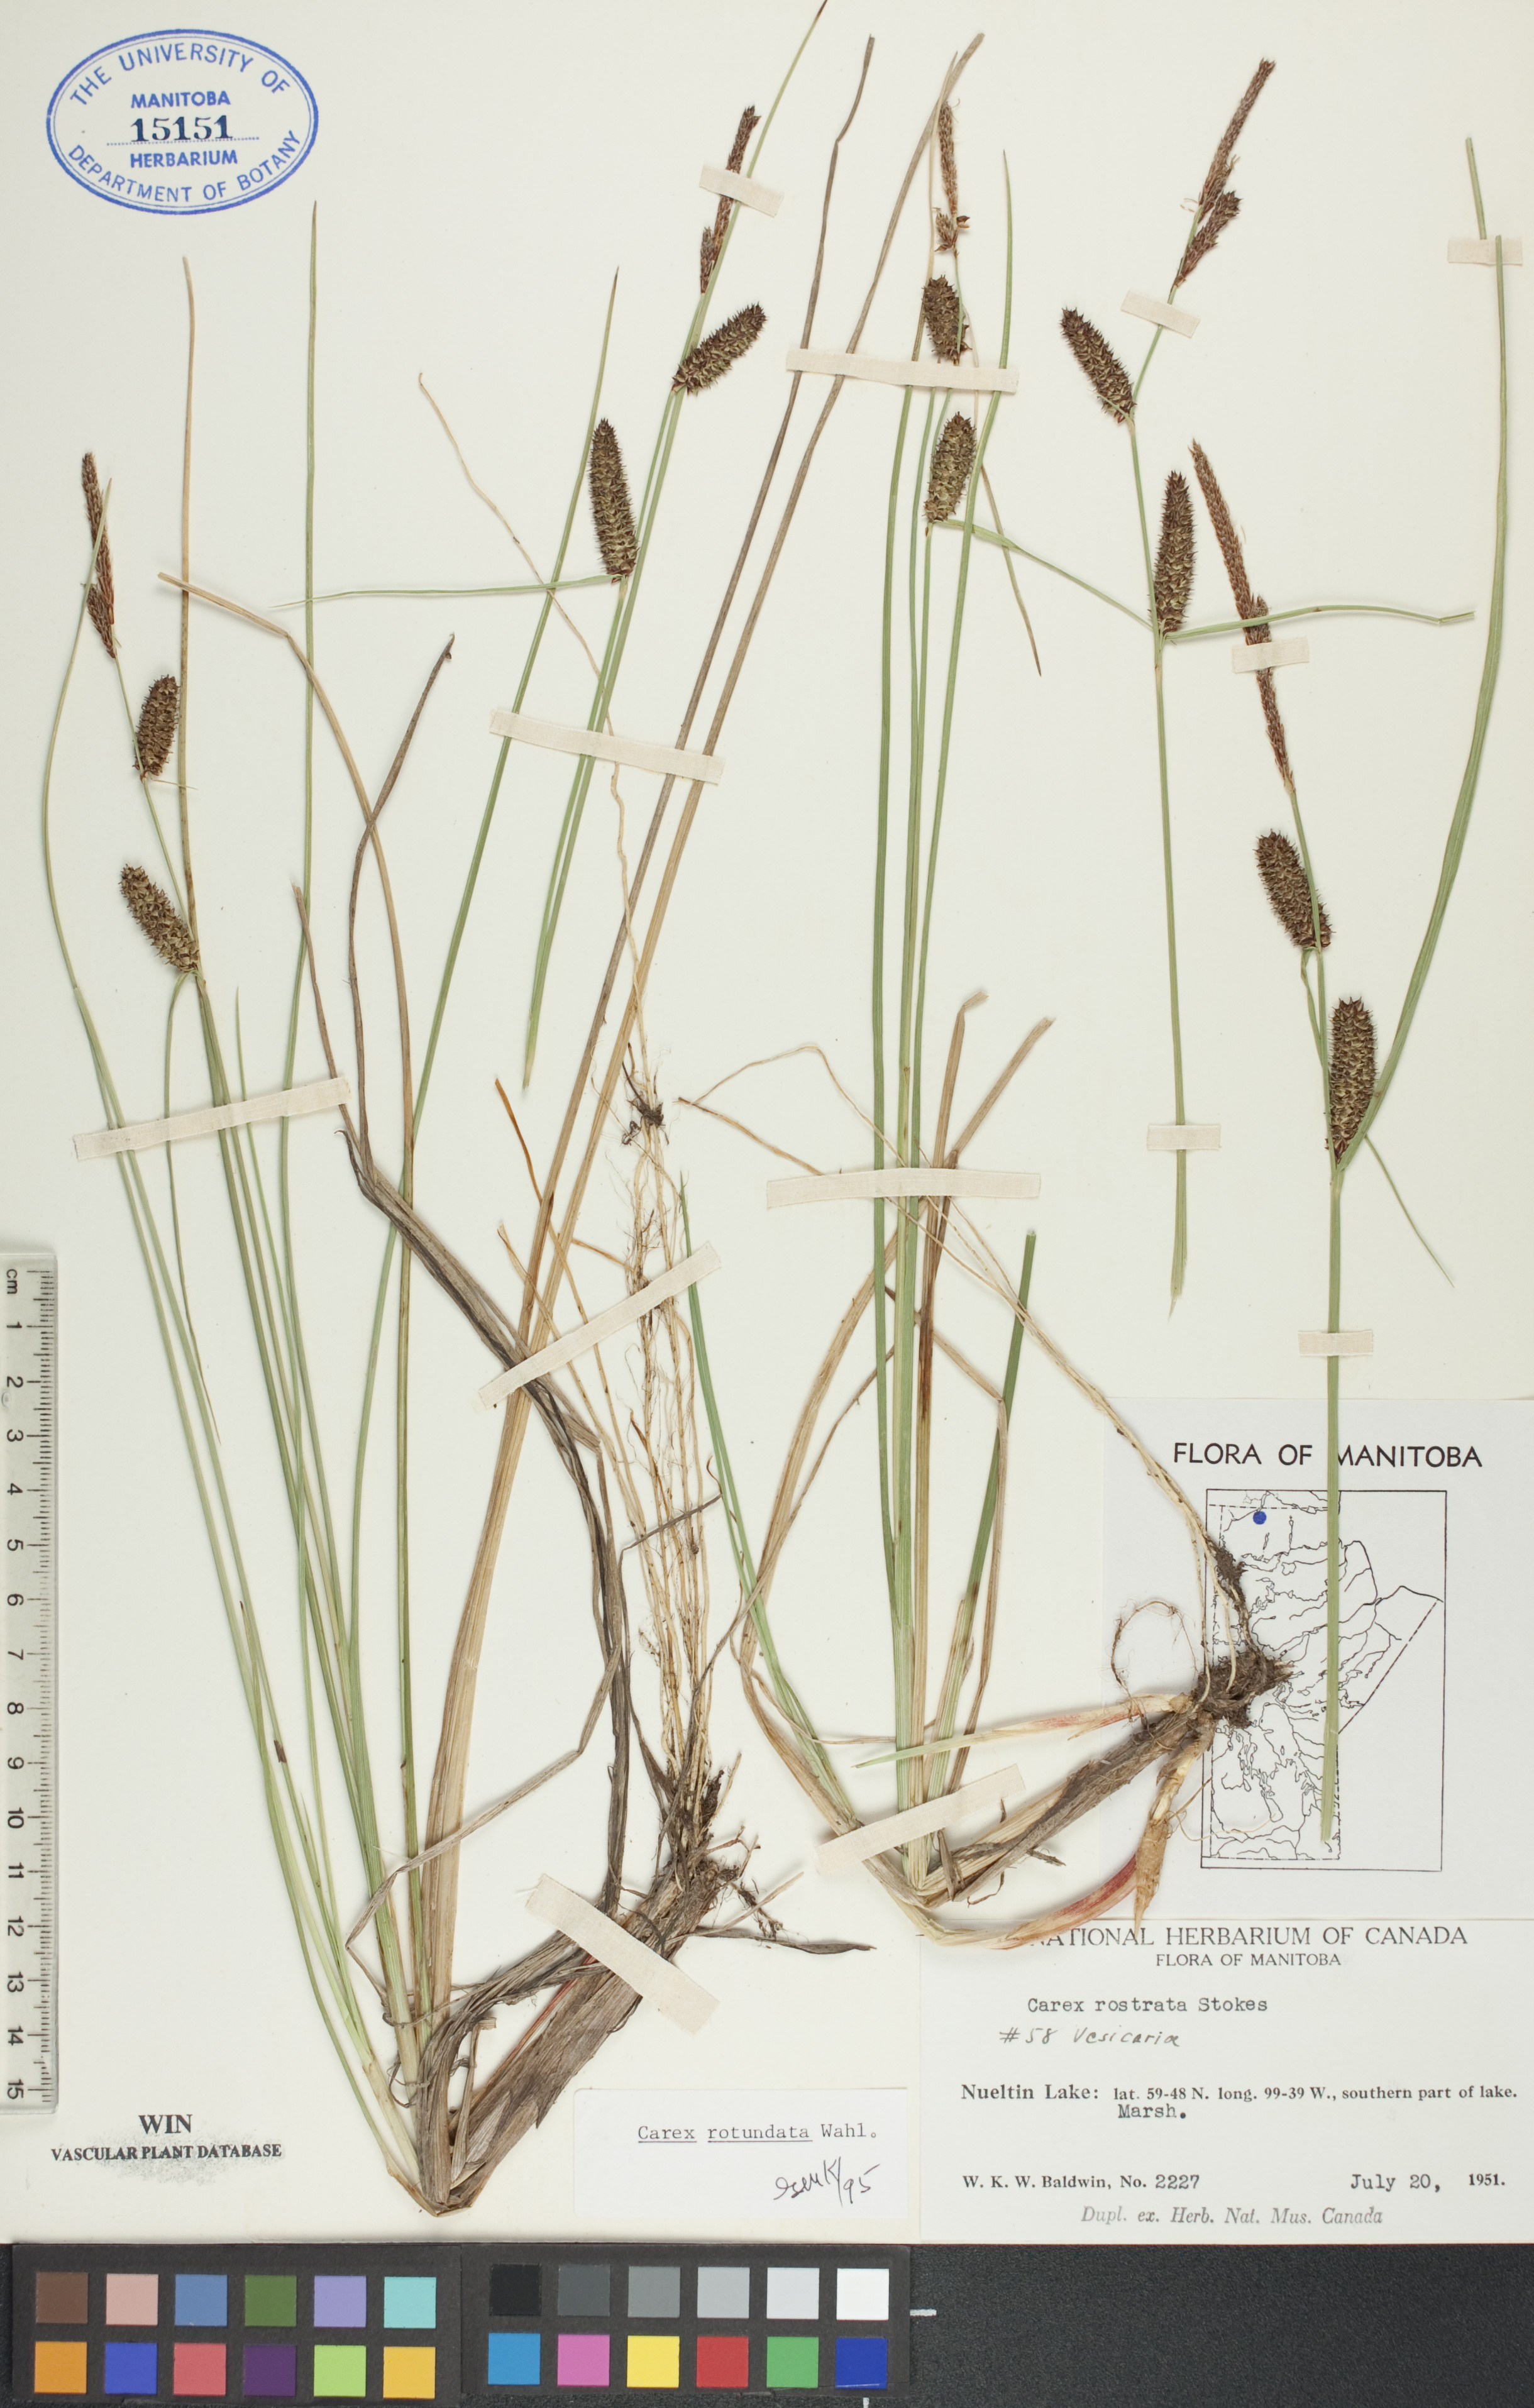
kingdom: Plantae
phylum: Tracheophyta
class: Liliopsida
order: Poales
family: Cyperaceae
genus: Carex
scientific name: Carex rotundata
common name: Round-fruited sedge
